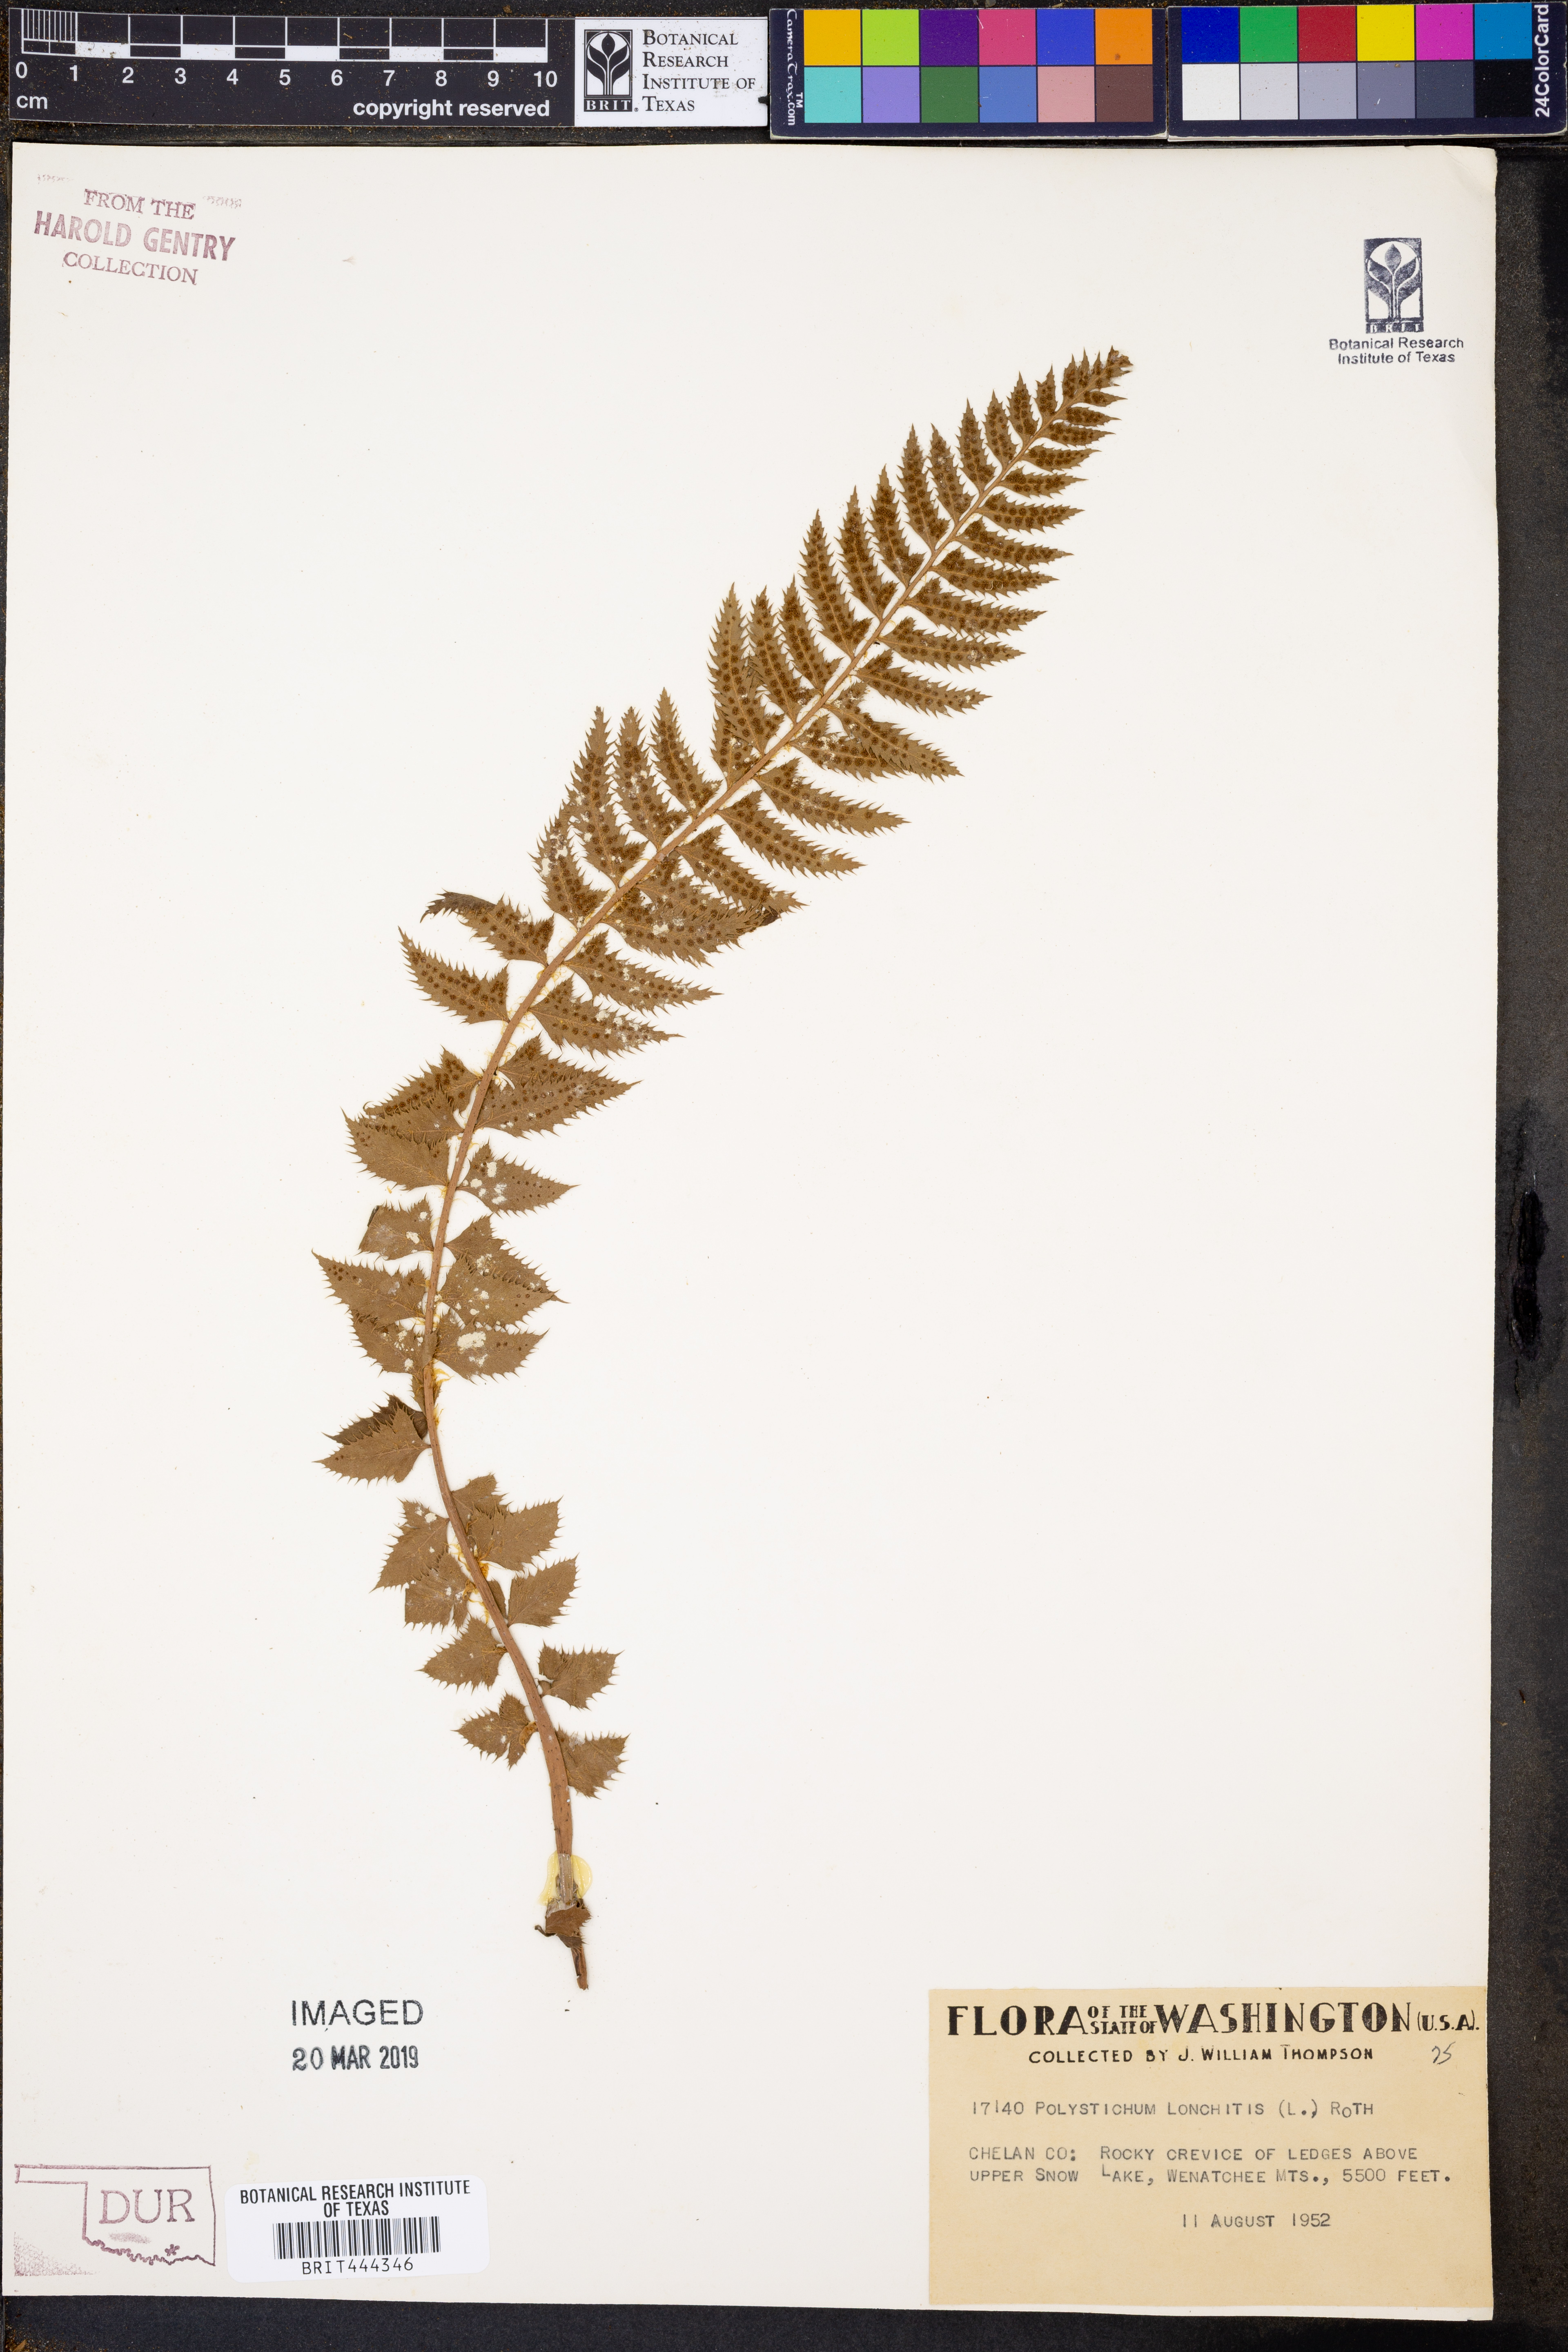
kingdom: Plantae
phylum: Tracheophyta
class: Polypodiopsida
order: Polypodiales
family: Dryopteridaceae
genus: Polystichum
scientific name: Polystichum lonchitis
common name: Holly fern
